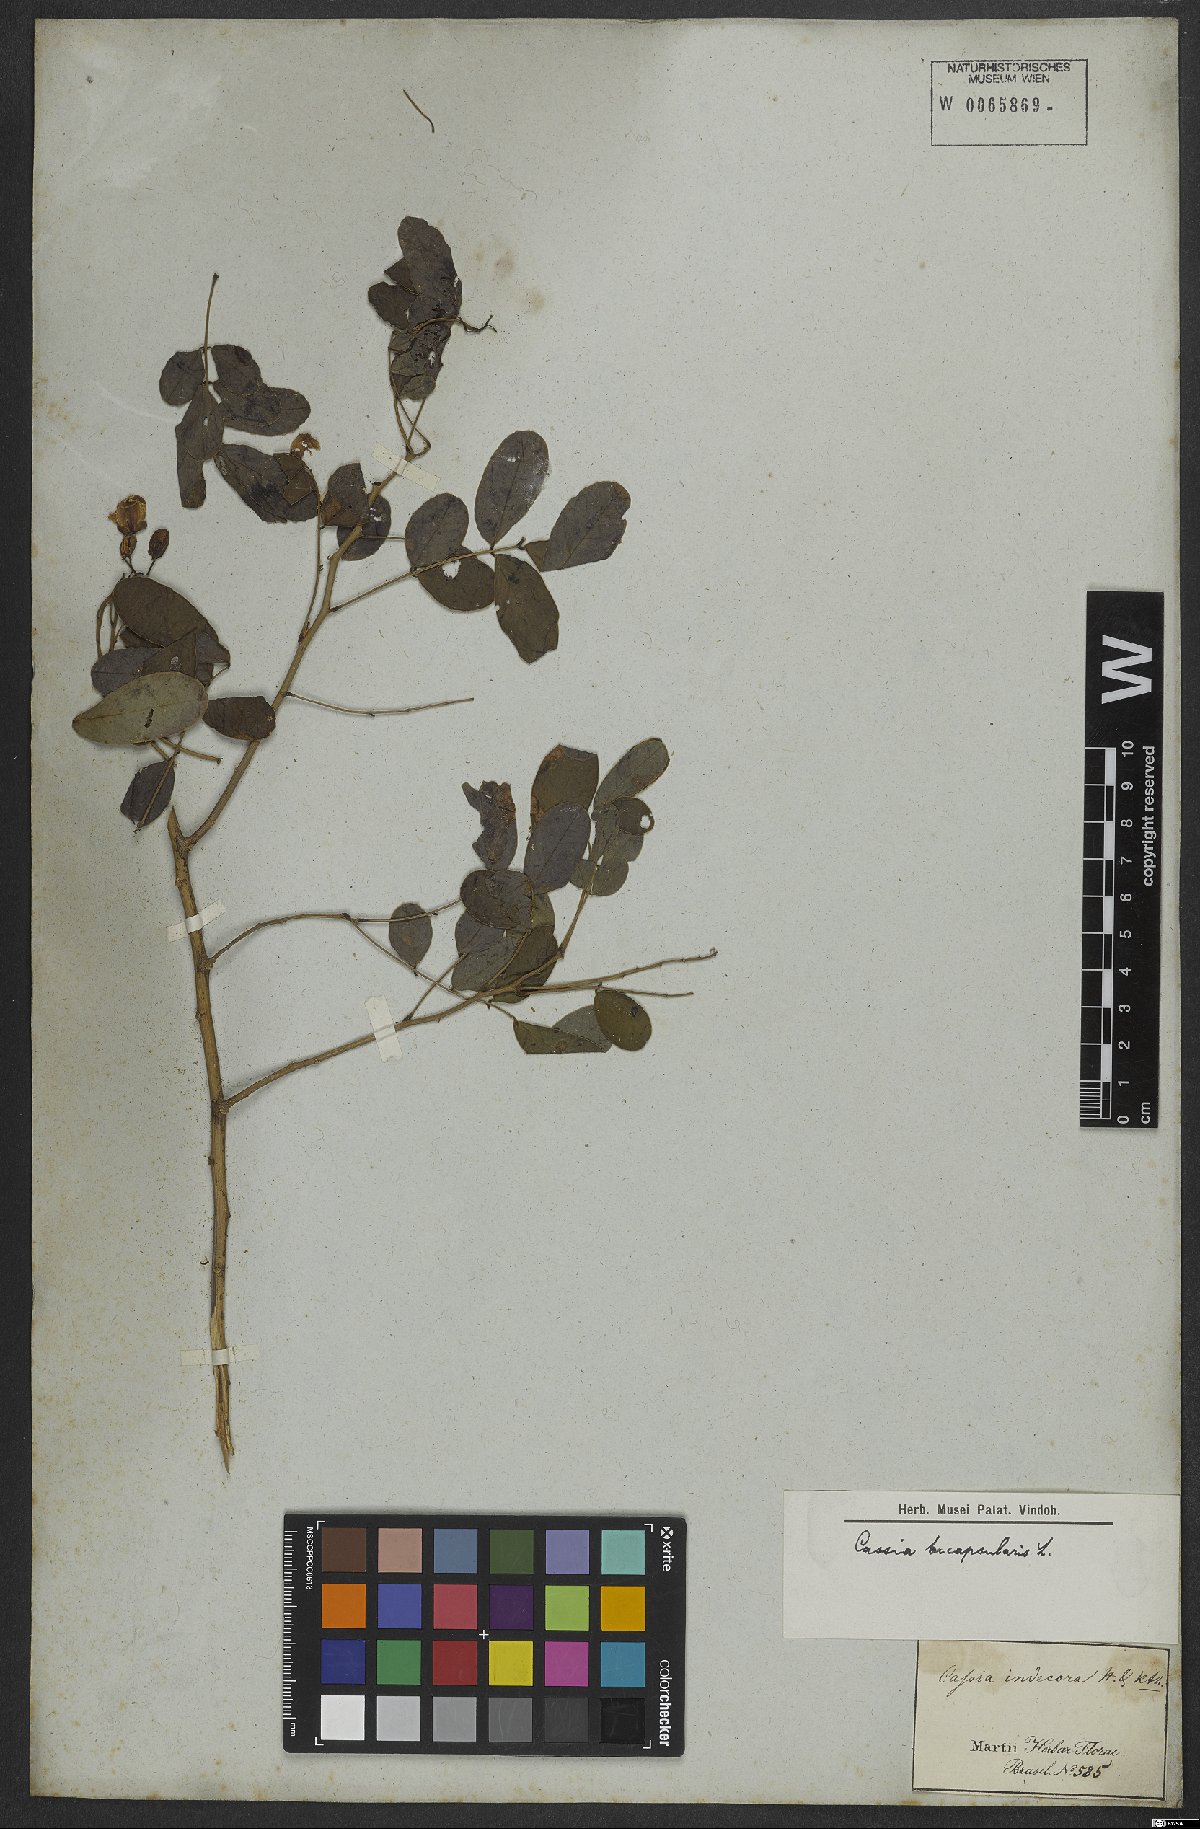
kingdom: Plantae
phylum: Tracheophyta
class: Magnoliopsida
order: Fabales
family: Fabaceae
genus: Senna
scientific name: Senna bicapsularis
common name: Christmasbush
